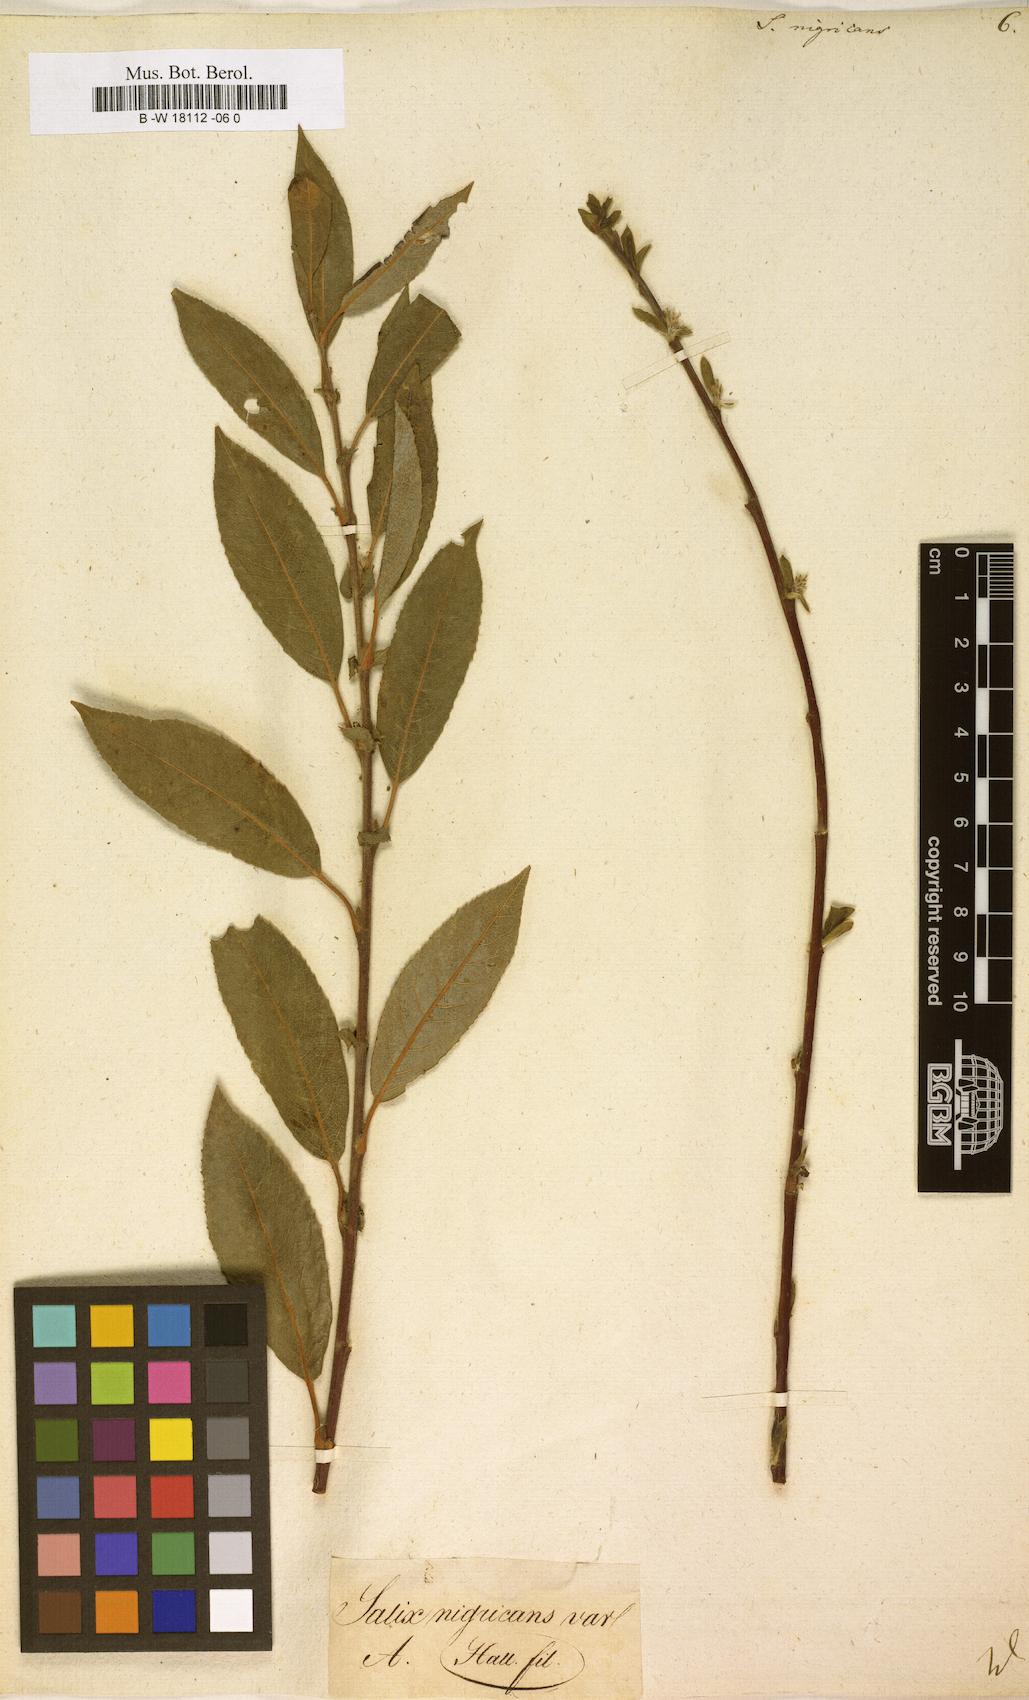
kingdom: Plantae
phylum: Tracheophyta
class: Magnoliopsida
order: Malpighiales
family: Salicaceae
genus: Salix
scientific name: Salix myrsinifolia
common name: Dark-leaved willow
